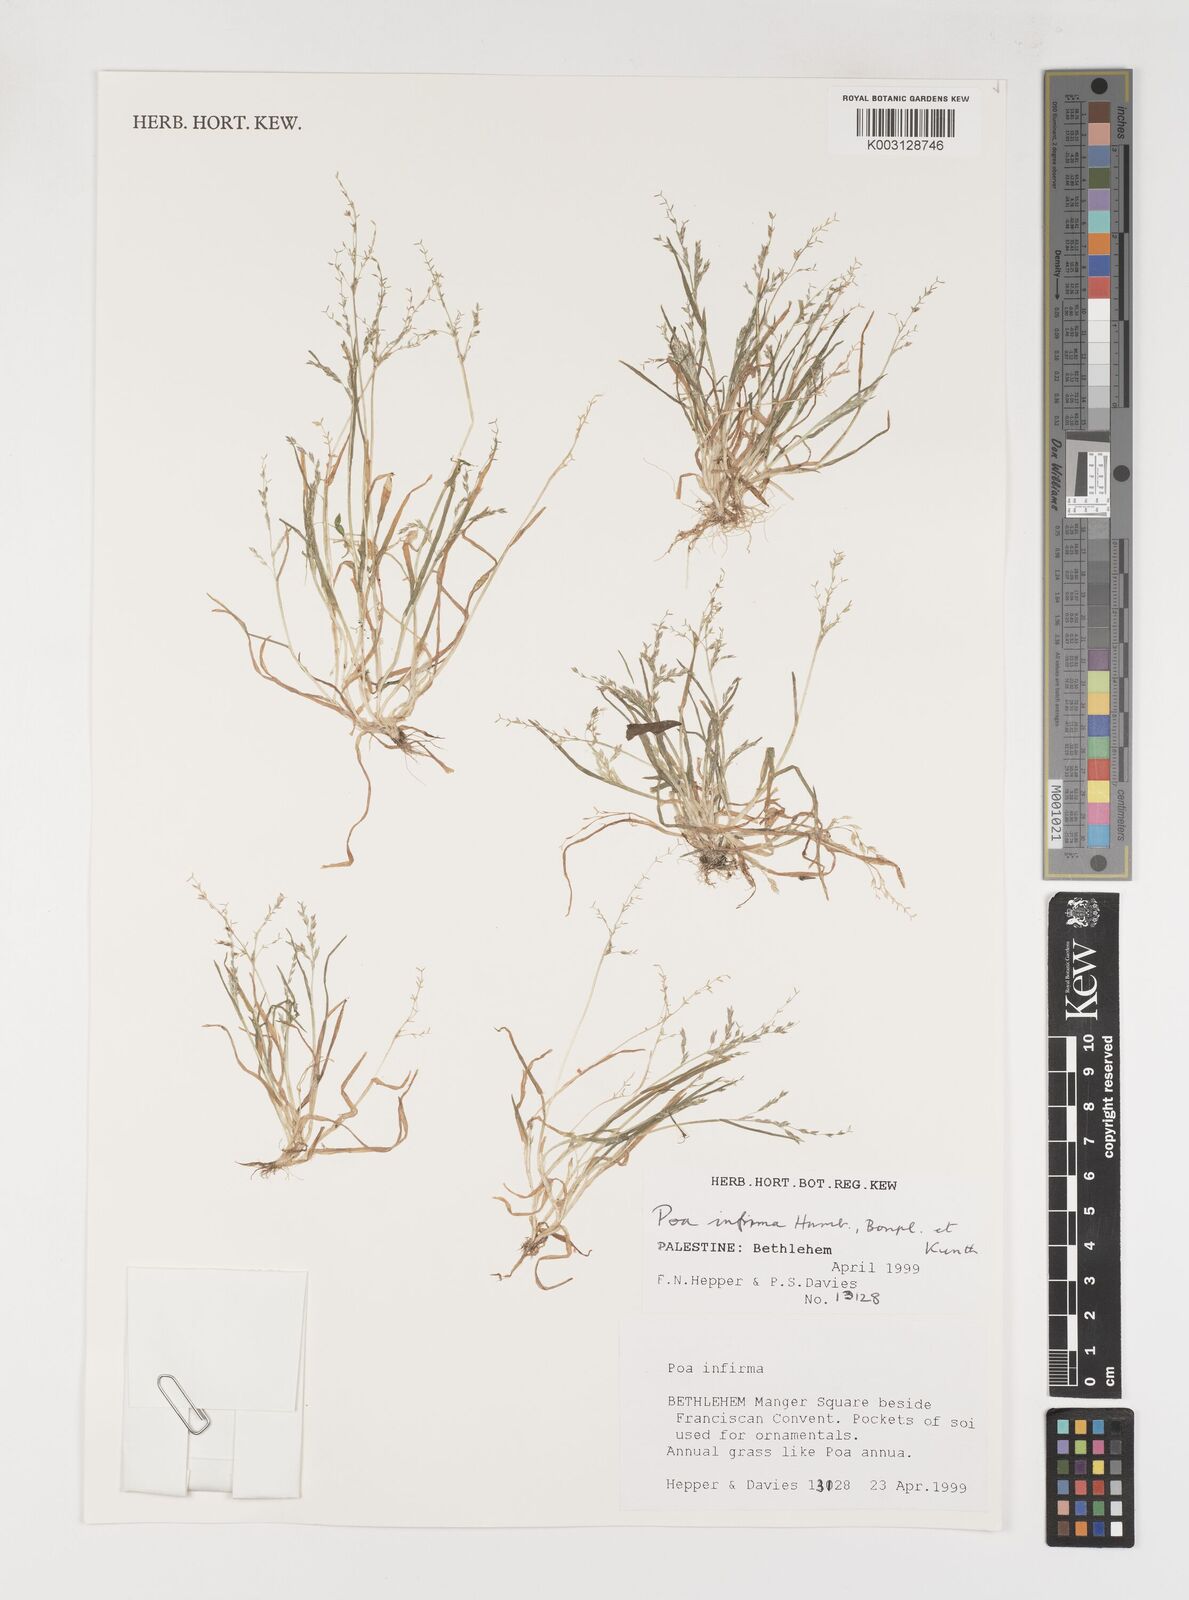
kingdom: Plantae
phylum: Tracheophyta
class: Liliopsida
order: Poales
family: Poaceae
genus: Poa
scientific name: Poa infirma
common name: Weak bluegrass
